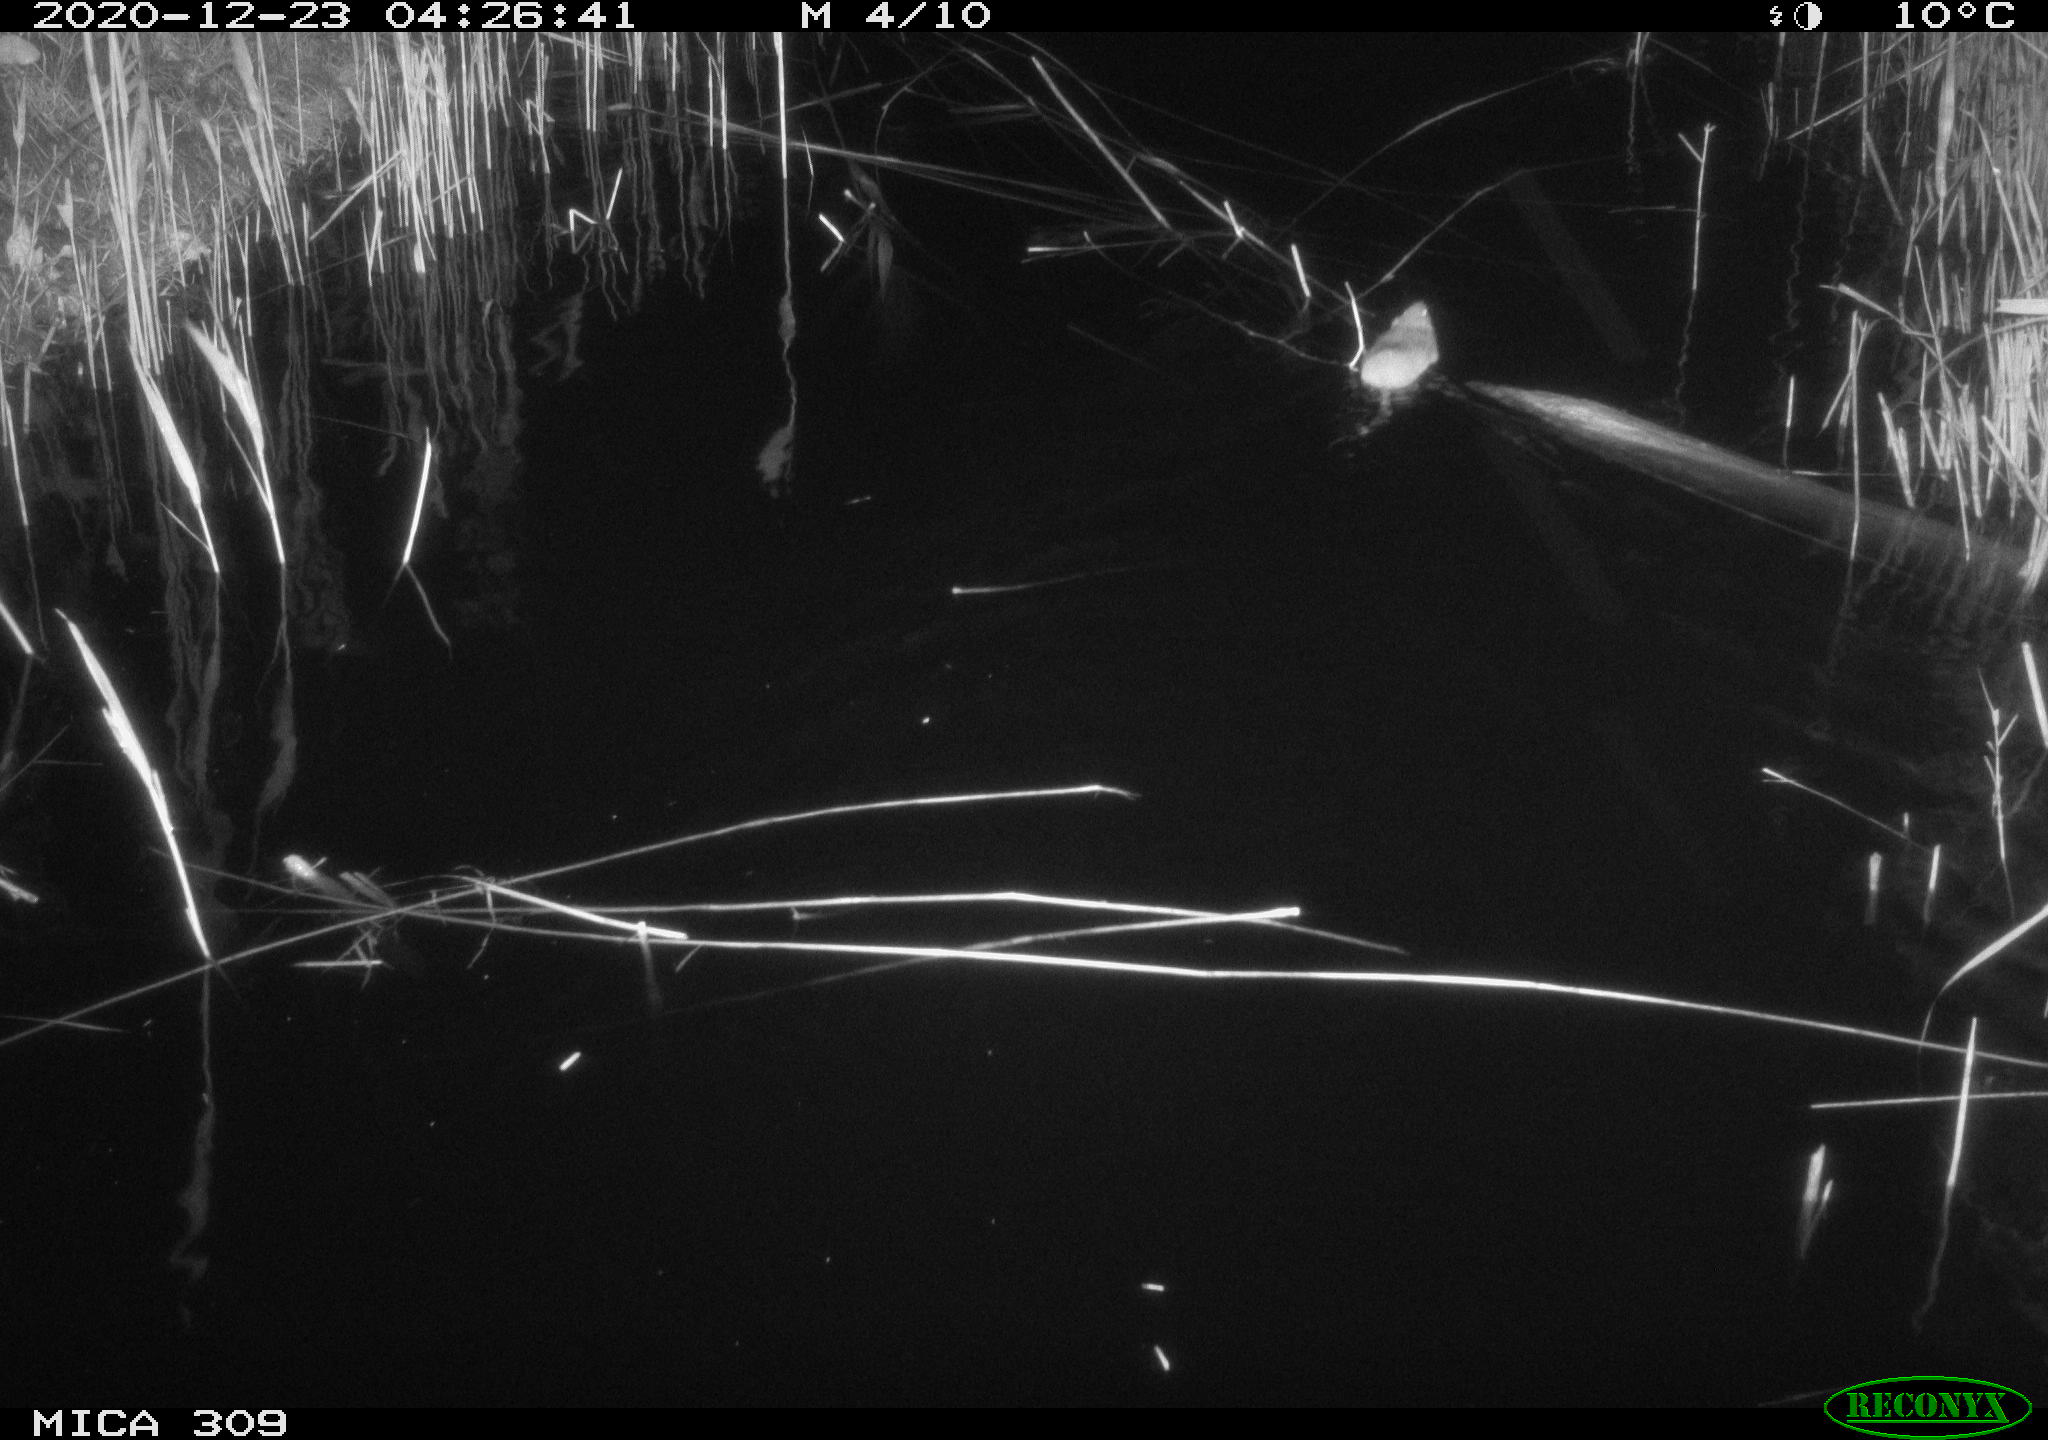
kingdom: Animalia
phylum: Chordata
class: Mammalia
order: Rodentia
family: Cricetidae
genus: Ondatra
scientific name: Ondatra zibethicus
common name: Muskrat
